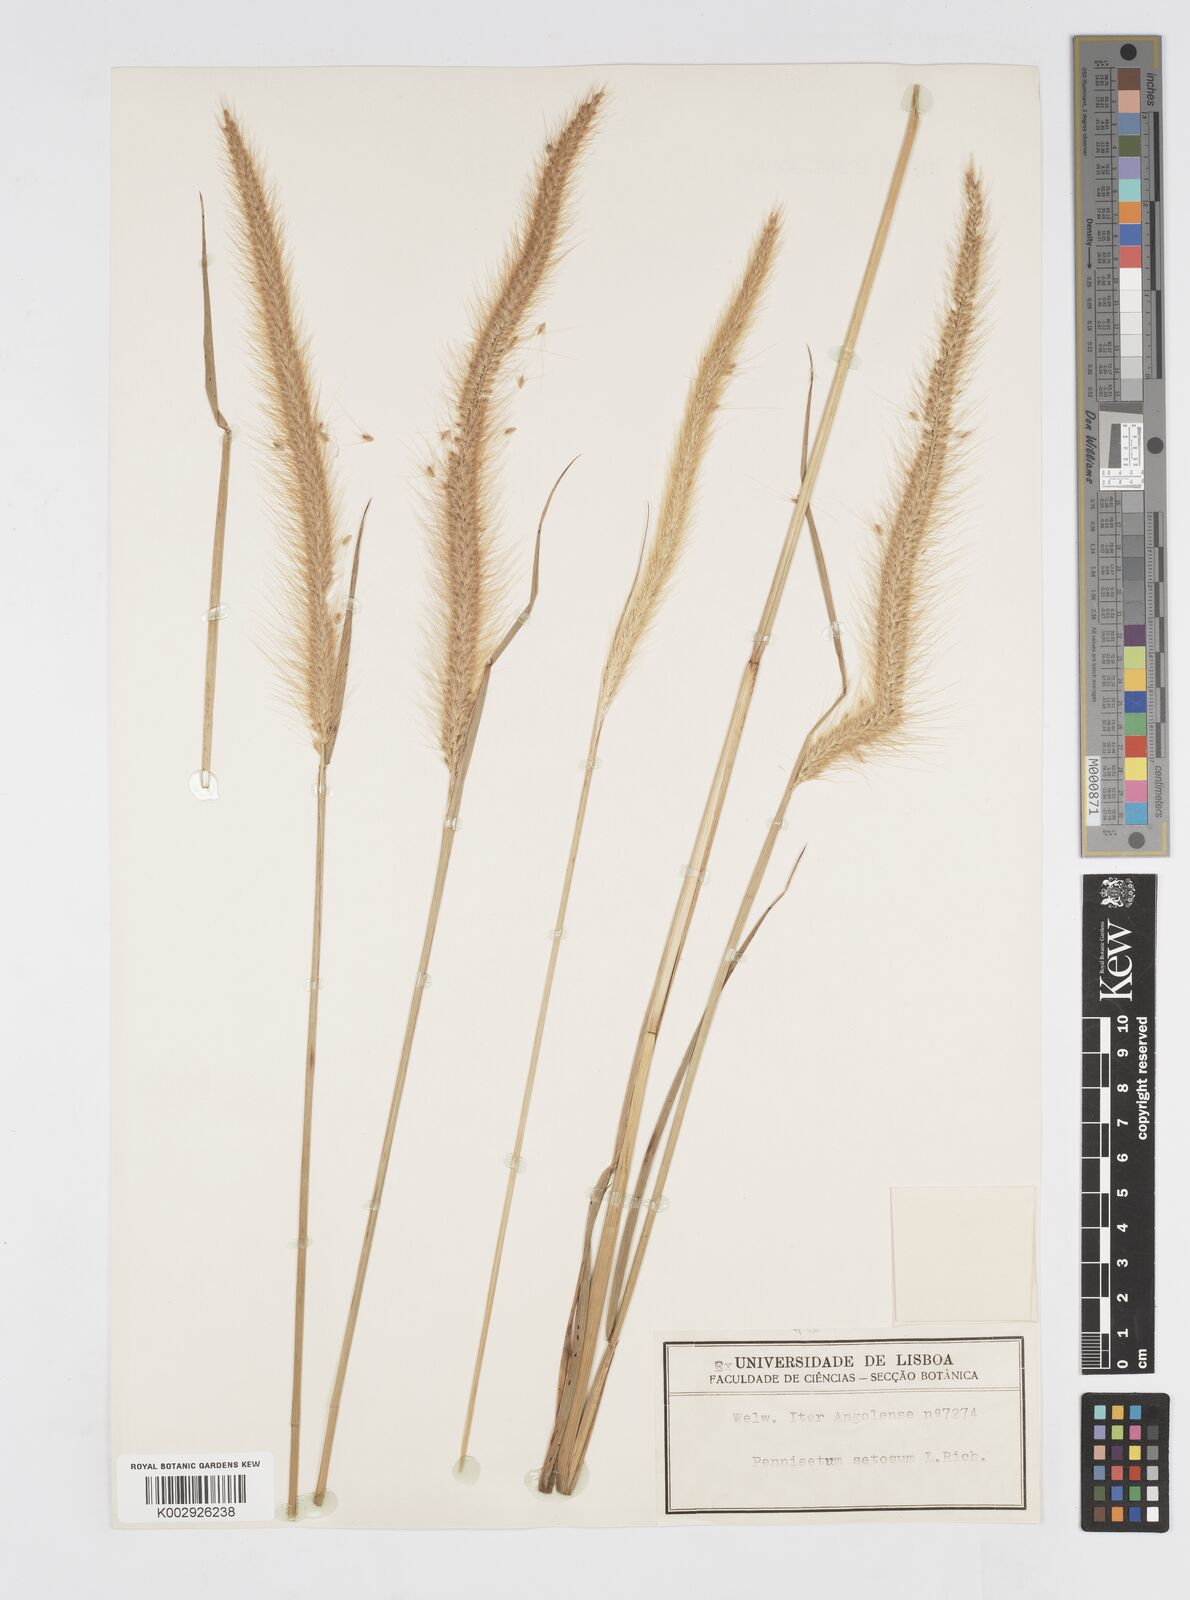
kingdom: Plantae
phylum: Tracheophyta
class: Liliopsida
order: Poales
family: Poaceae
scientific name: Poaceae
